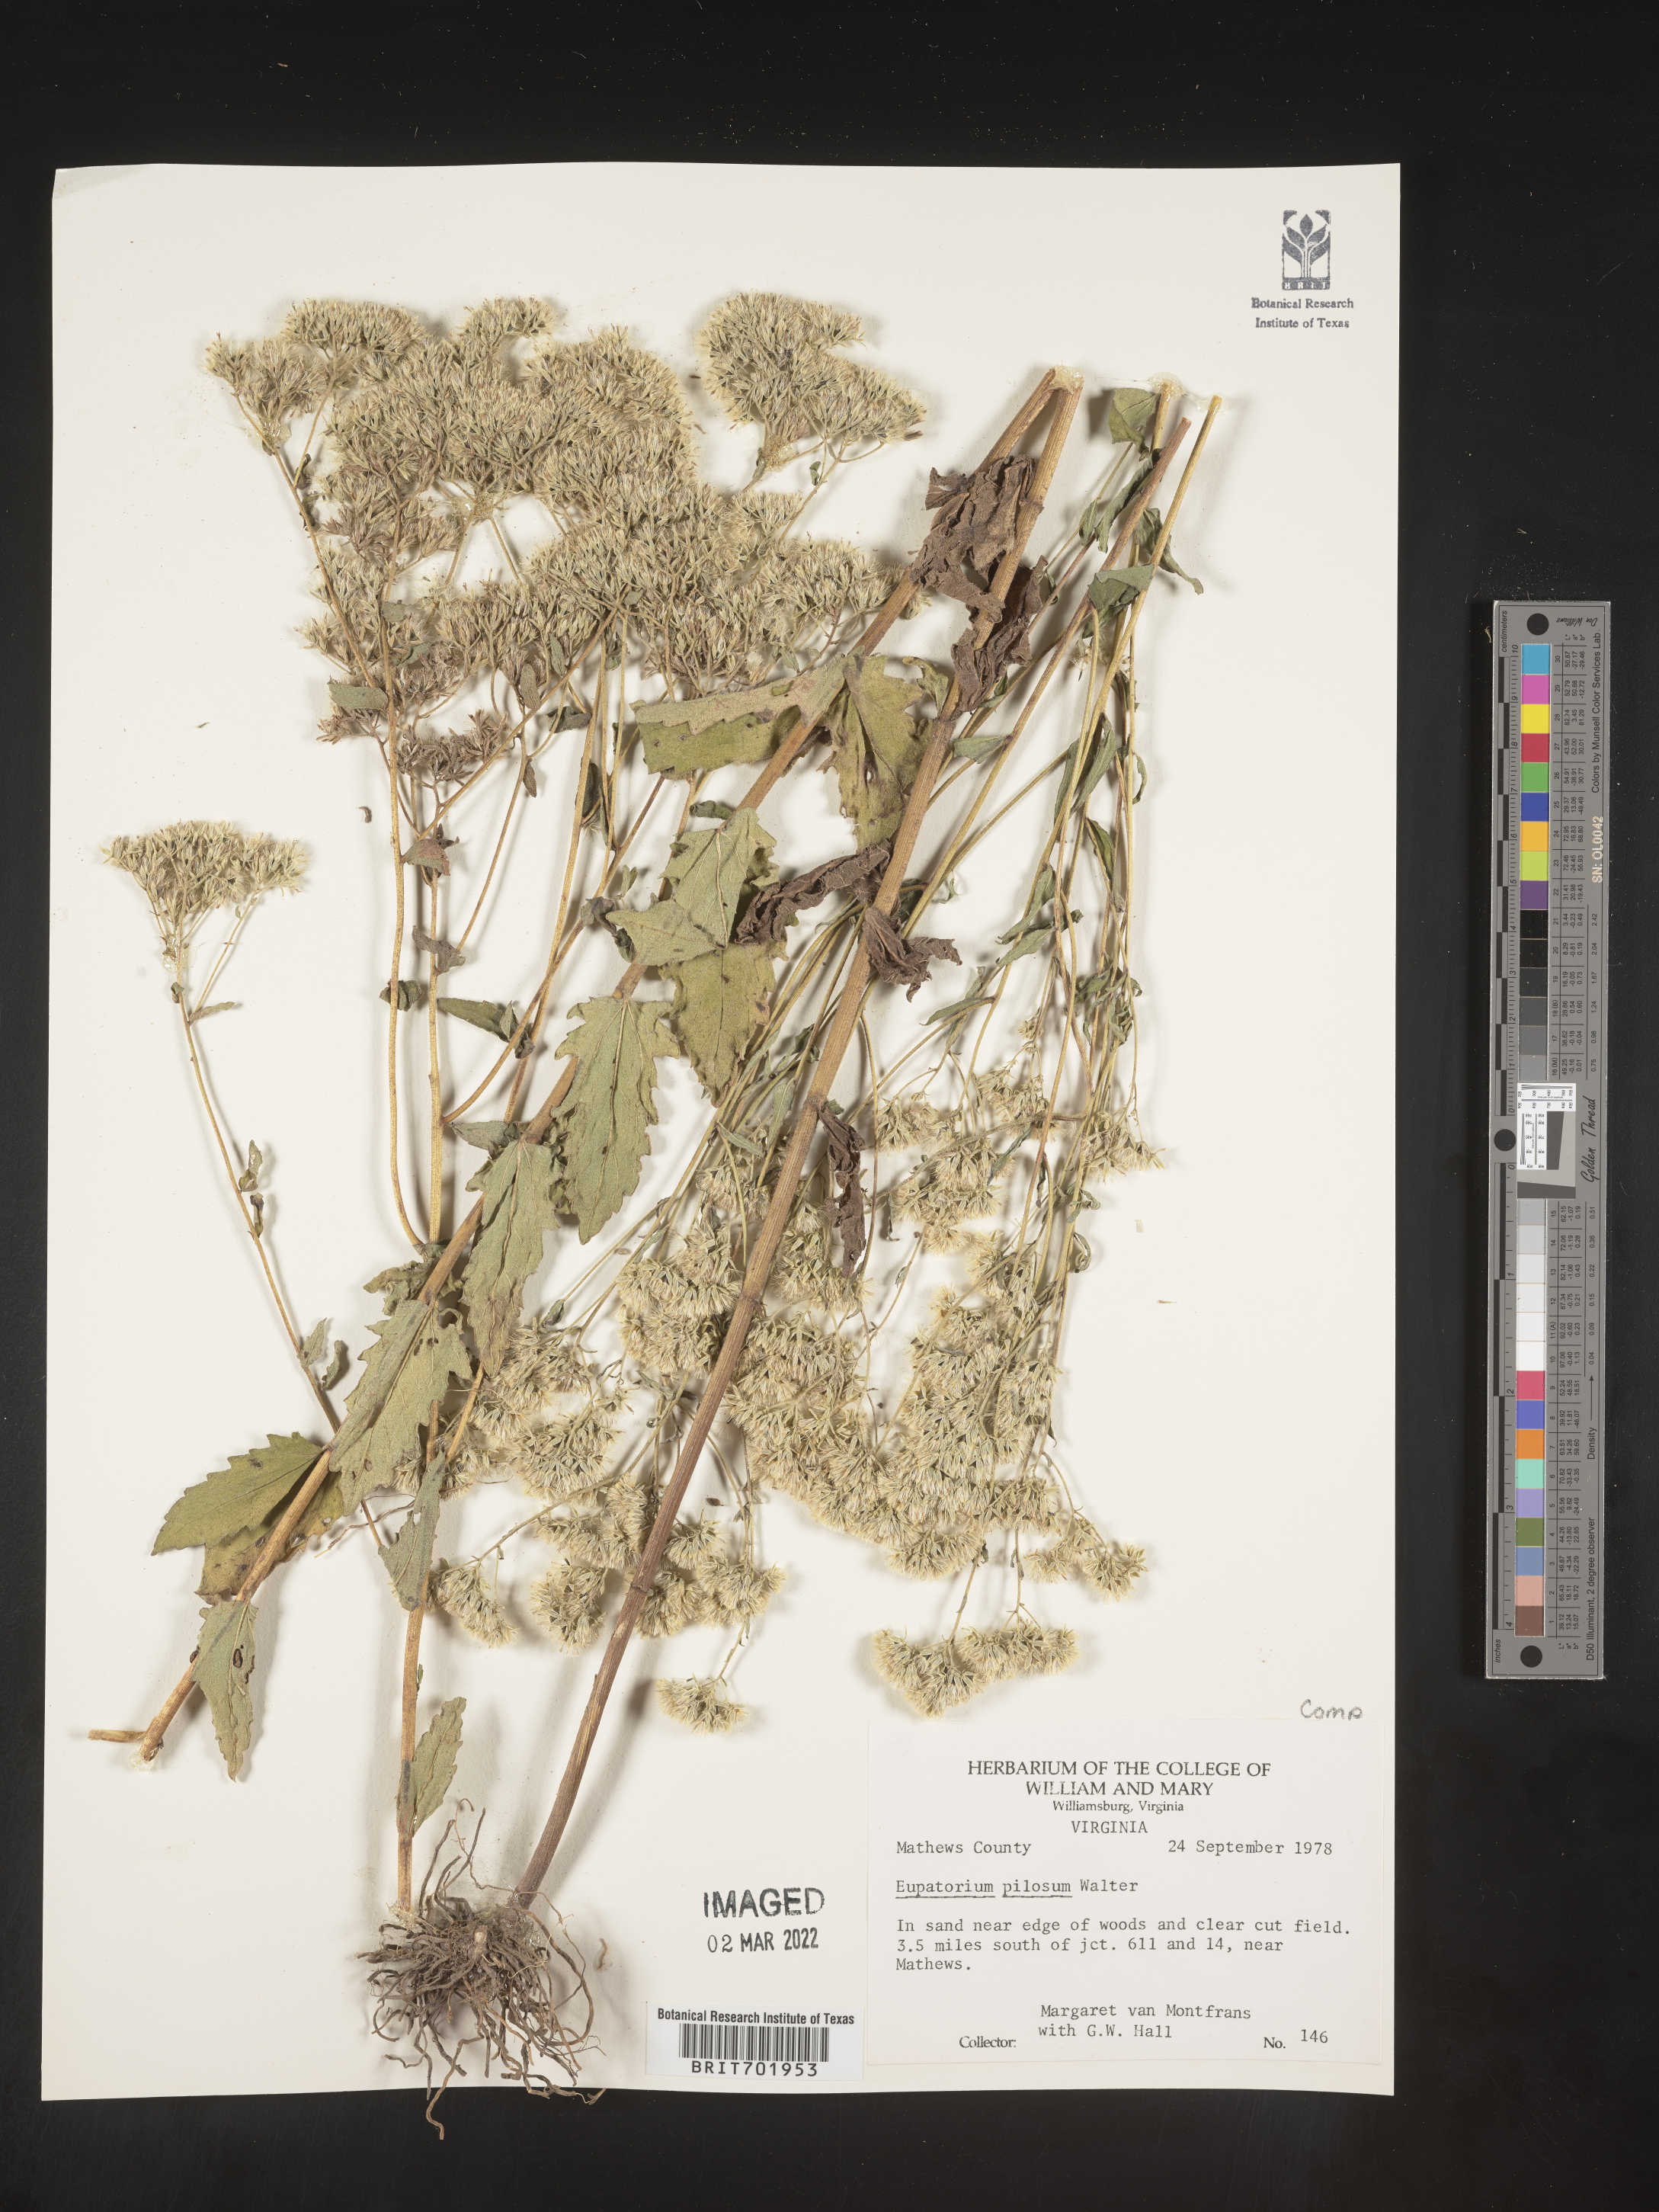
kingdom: Plantae
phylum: Tracheophyta
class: Magnoliopsida
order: Asterales
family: Asteraceae
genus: Eupatorium
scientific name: Eupatorium pilosum
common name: Rough boneset
